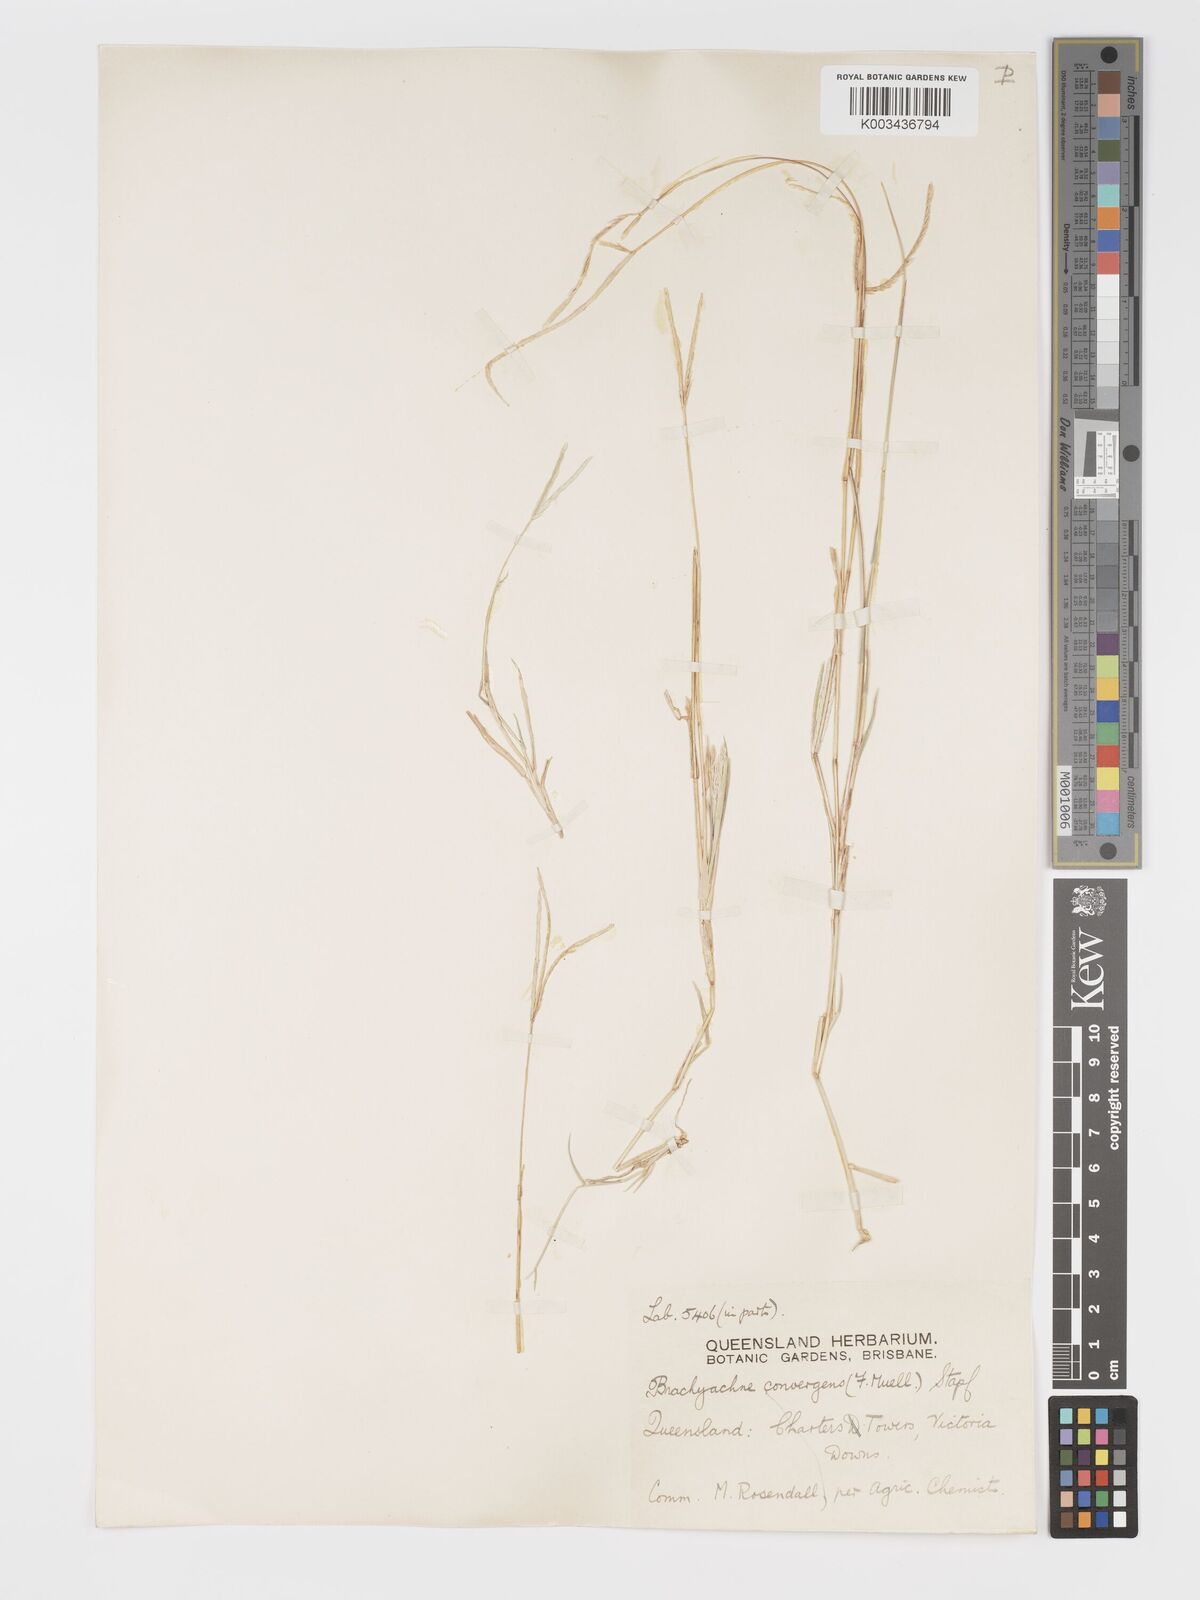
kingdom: Plantae
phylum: Tracheophyta
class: Liliopsida
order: Poales
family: Poaceae
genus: Cynodon
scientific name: Cynodon convergens
